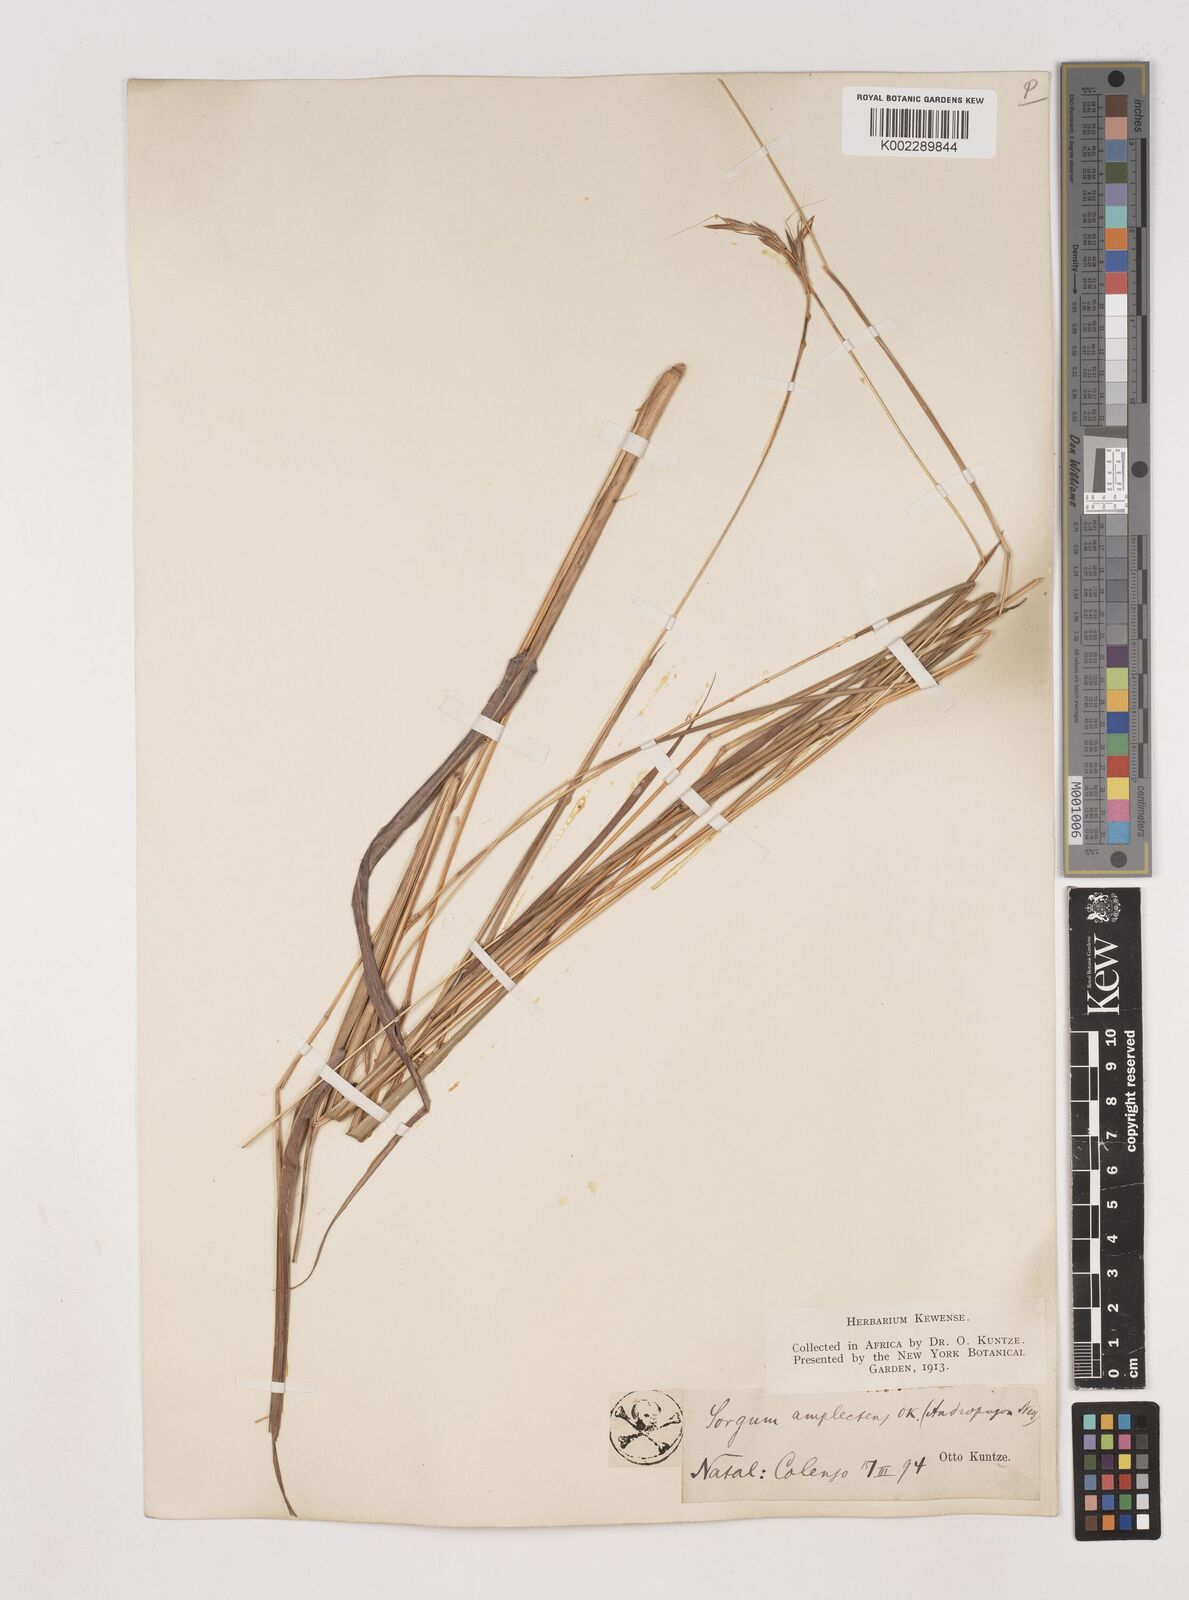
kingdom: Plantae
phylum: Tracheophyta
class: Liliopsida
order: Poales
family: Poaceae
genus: Diheteropogon
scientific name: Diheteropogon amplectens
